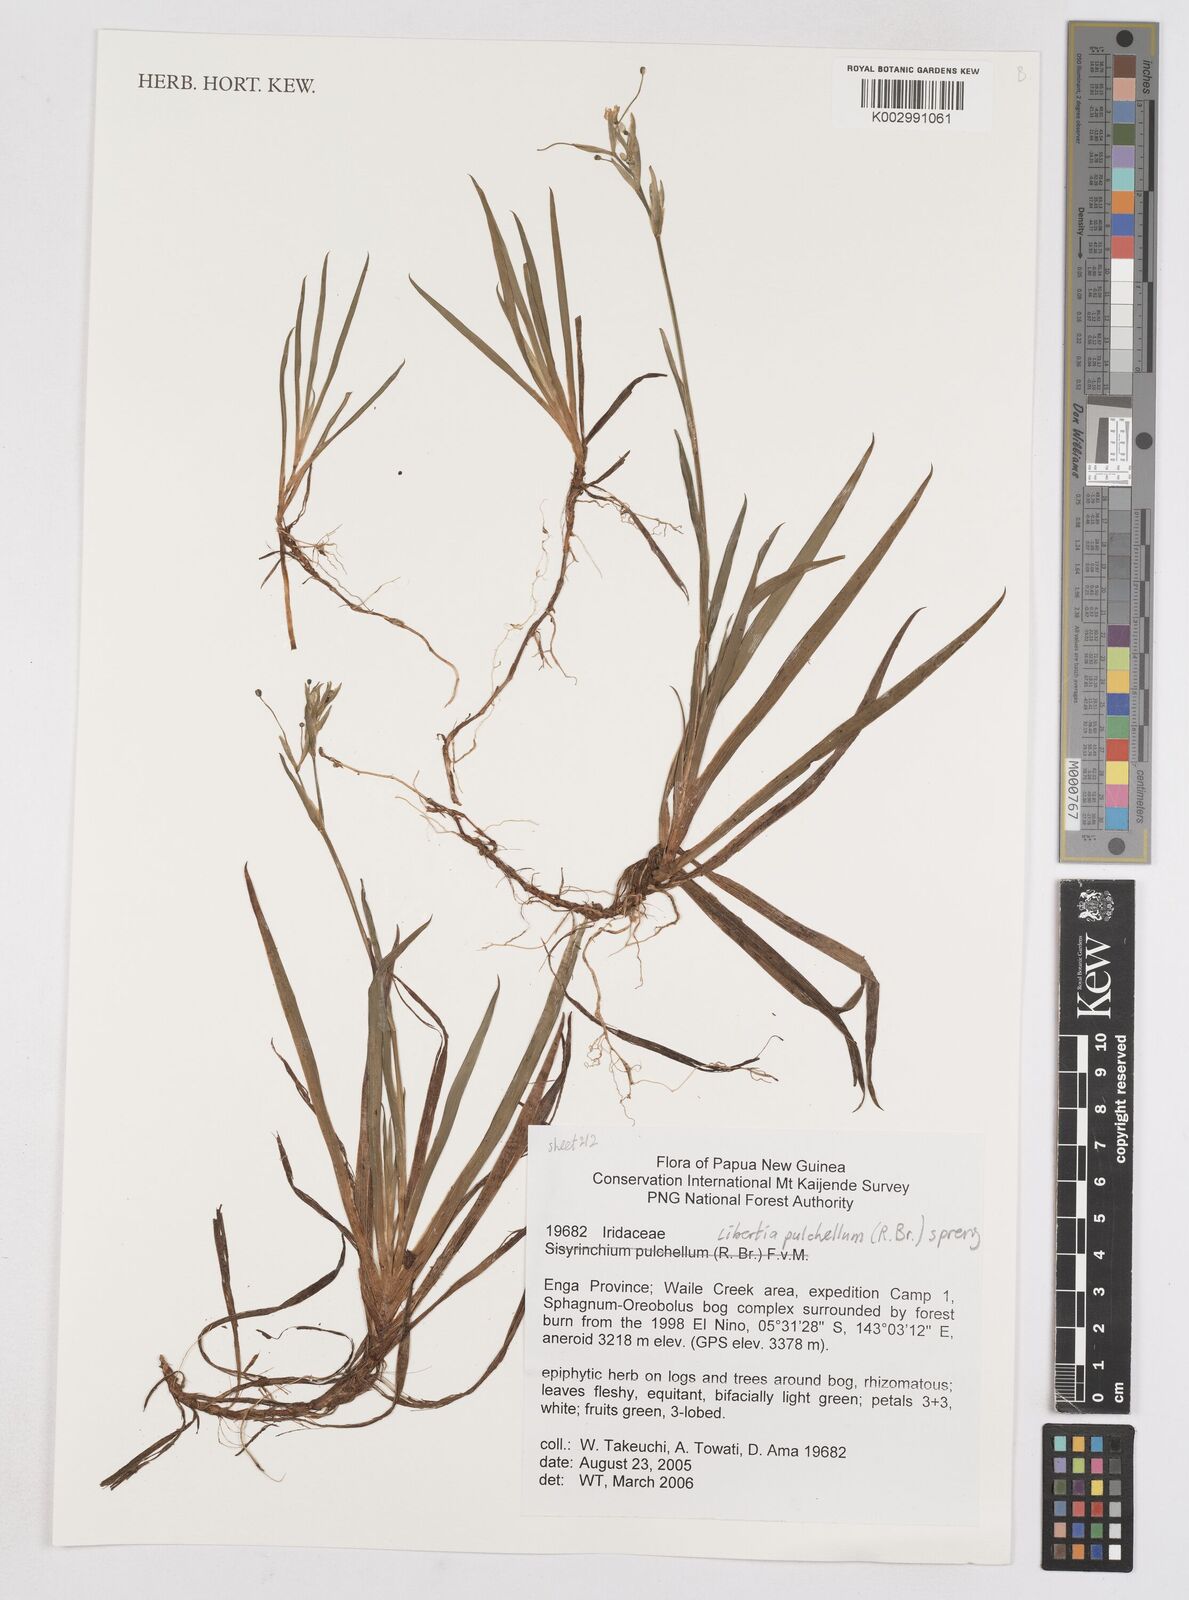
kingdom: Plantae
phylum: Tracheophyta
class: Liliopsida
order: Asparagales
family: Iridaceae
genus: Libertia
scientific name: Libertia pulchella
